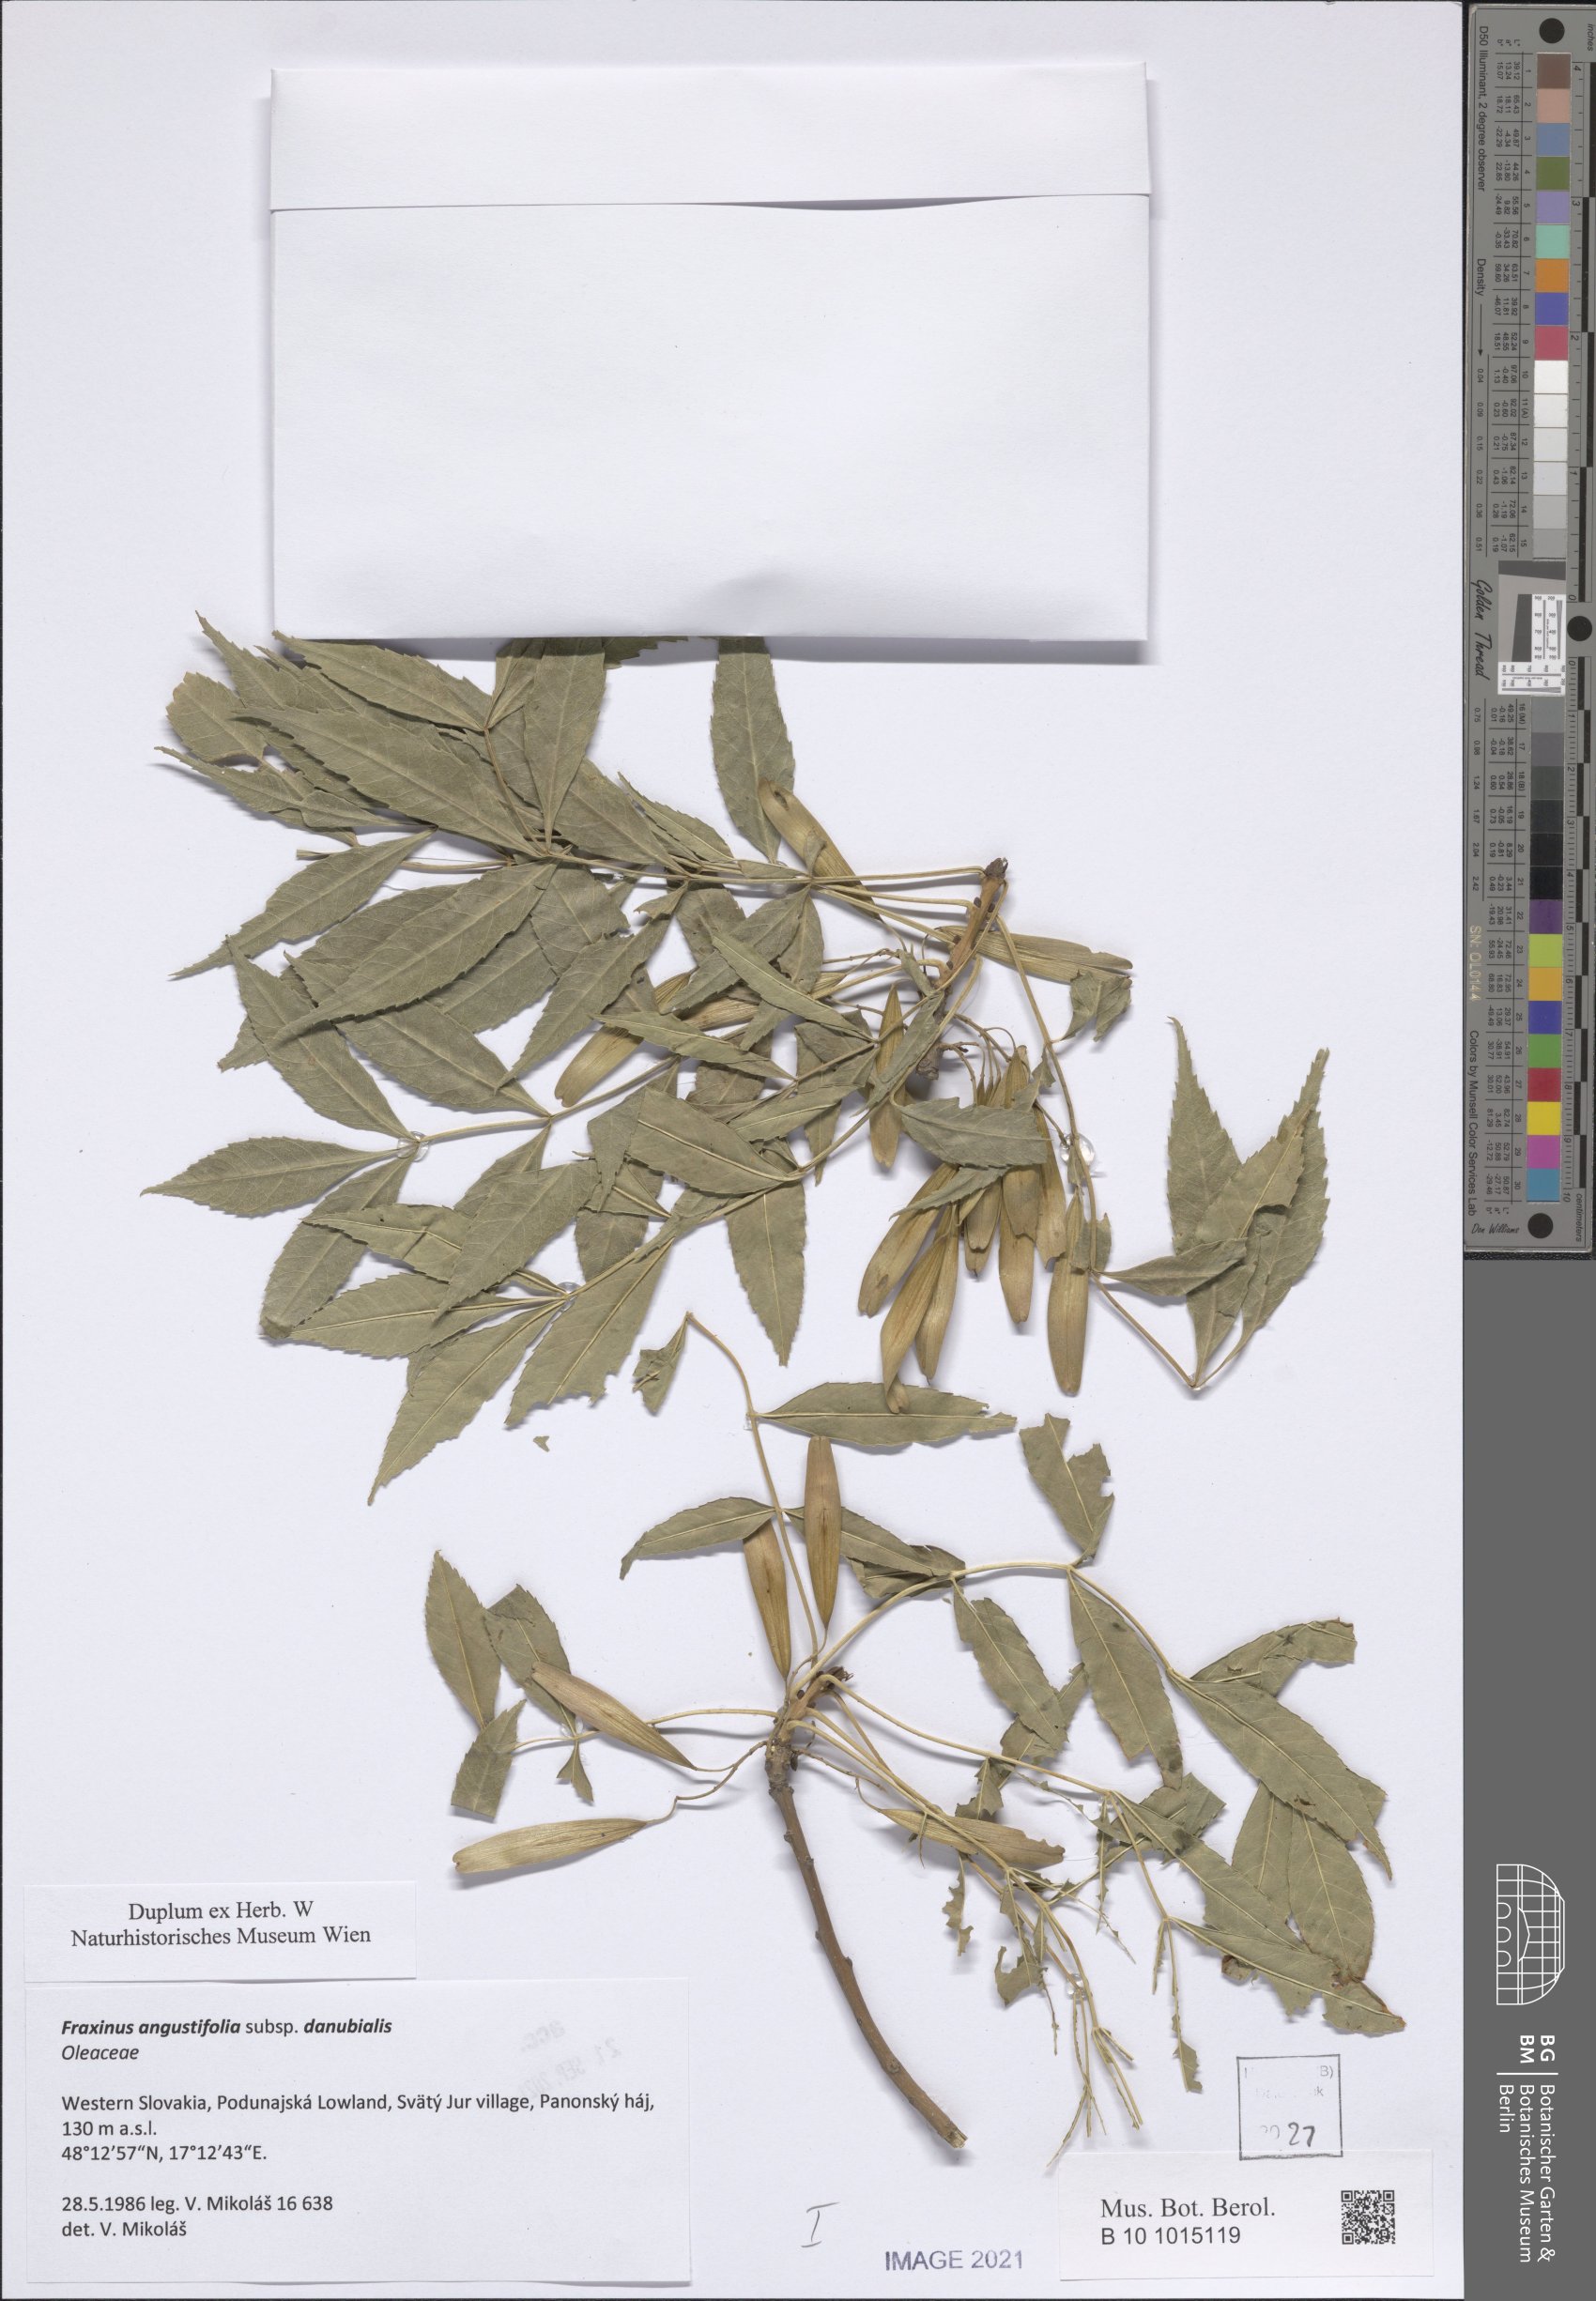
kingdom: Plantae
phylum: Tracheophyta
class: Magnoliopsida
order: Lamiales
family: Oleaceae
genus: Fraxinus
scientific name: Fraxinus angustifolia
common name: Narrow-leafed ash
